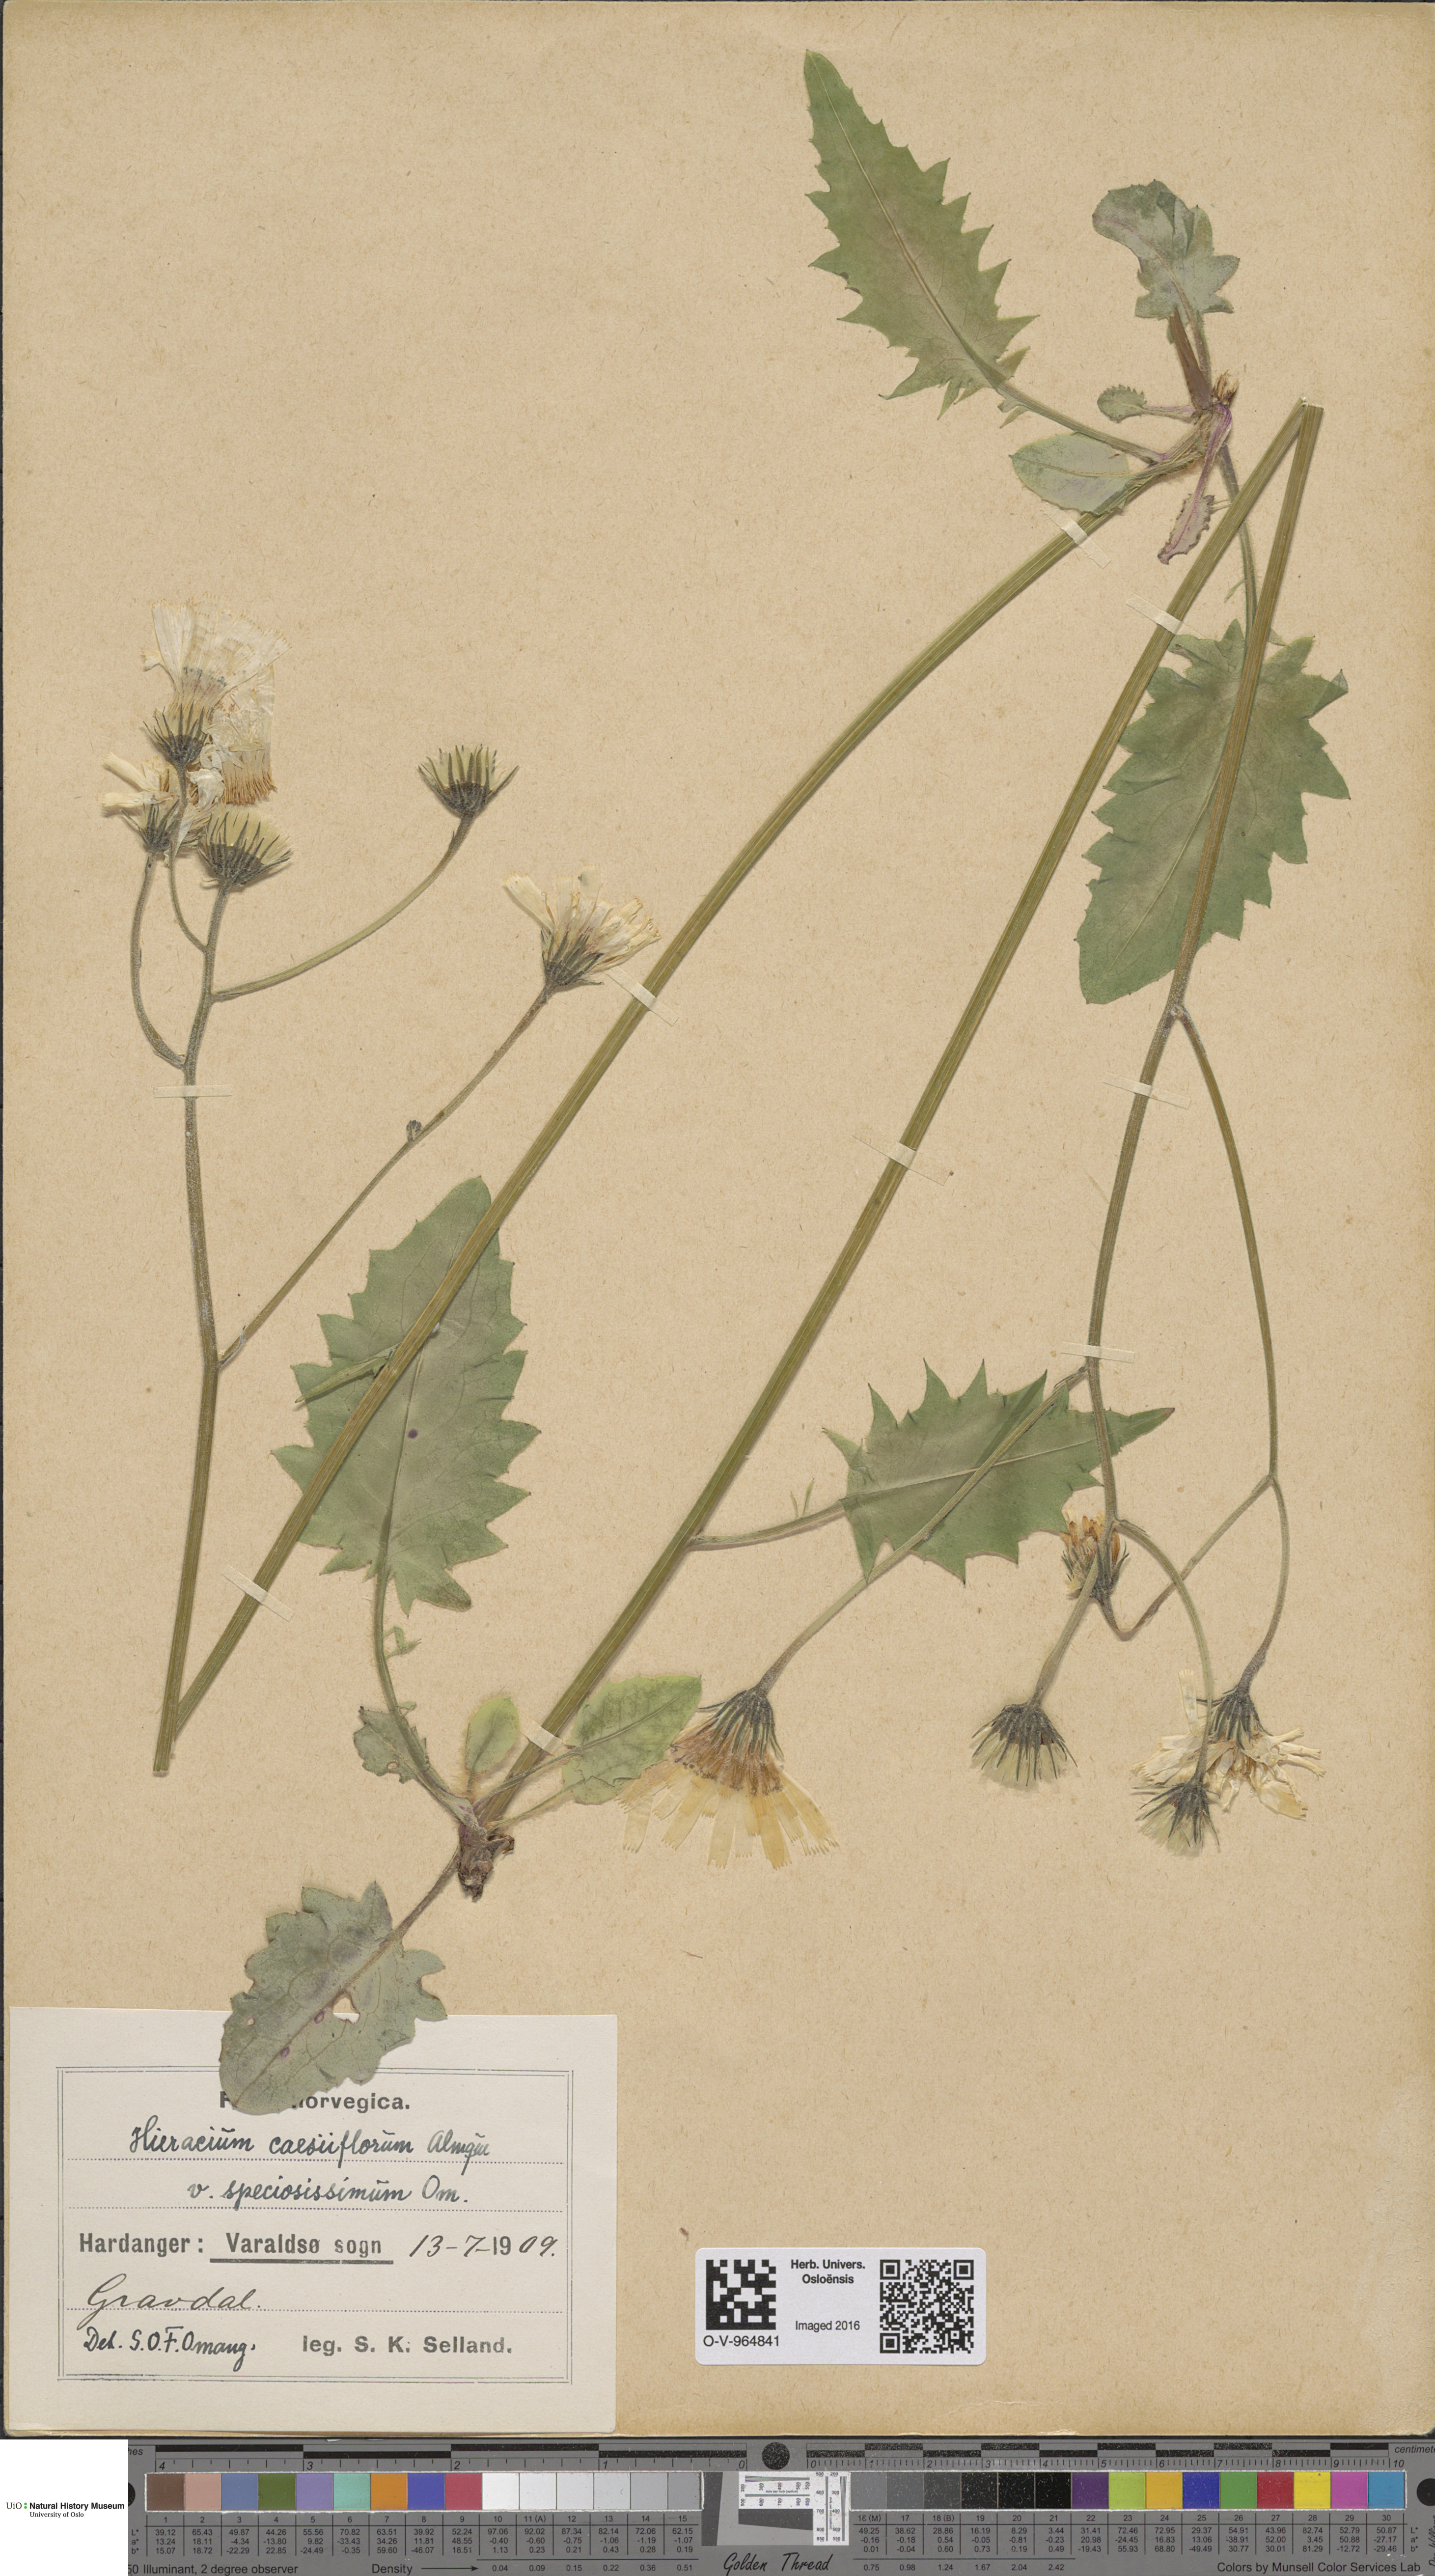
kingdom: Plantae
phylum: Tracheophyta
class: Magnoliopsida
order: Asterales
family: Asteraceae
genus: Hieracium
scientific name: Hieracium bifidum
